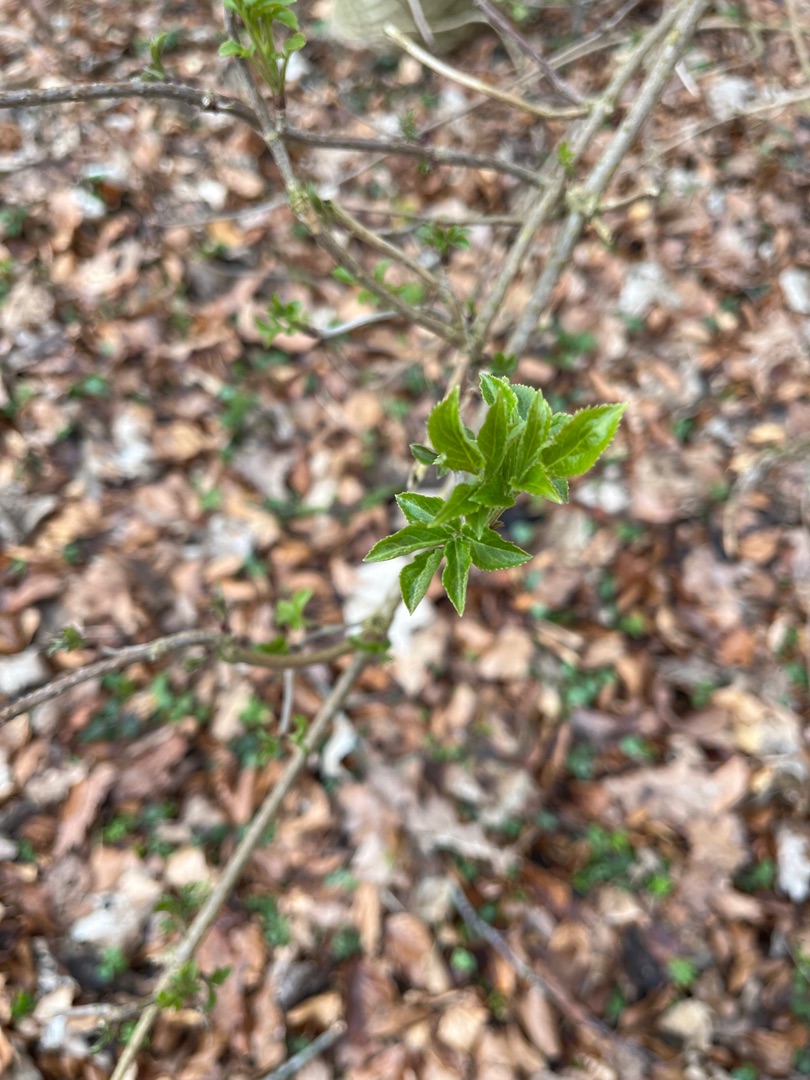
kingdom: Plantae
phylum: Tracheophyta
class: Magnoliopsida
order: Dipsacales
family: Viburnaceae
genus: Sambucus
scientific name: Sambucus nigra
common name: Almindelig hyld
